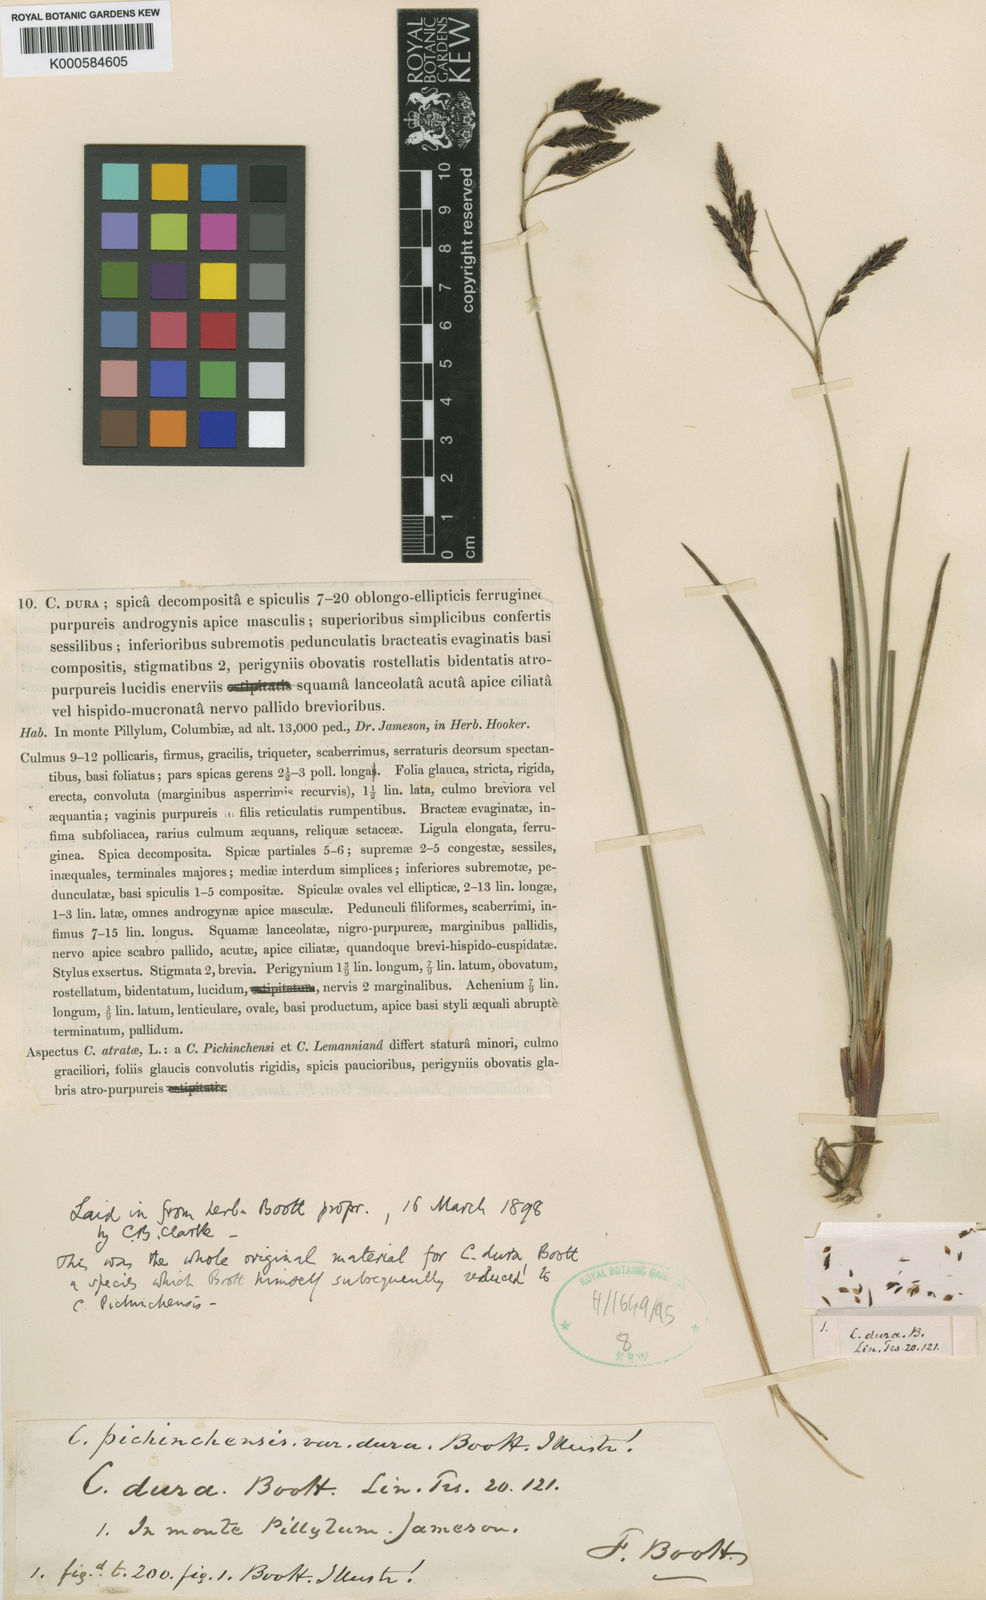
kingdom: Plantae
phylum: Tracheophyta
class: Liliopsida
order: Poales
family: Cyperaceae
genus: Carex
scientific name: Carex pichinchensis
